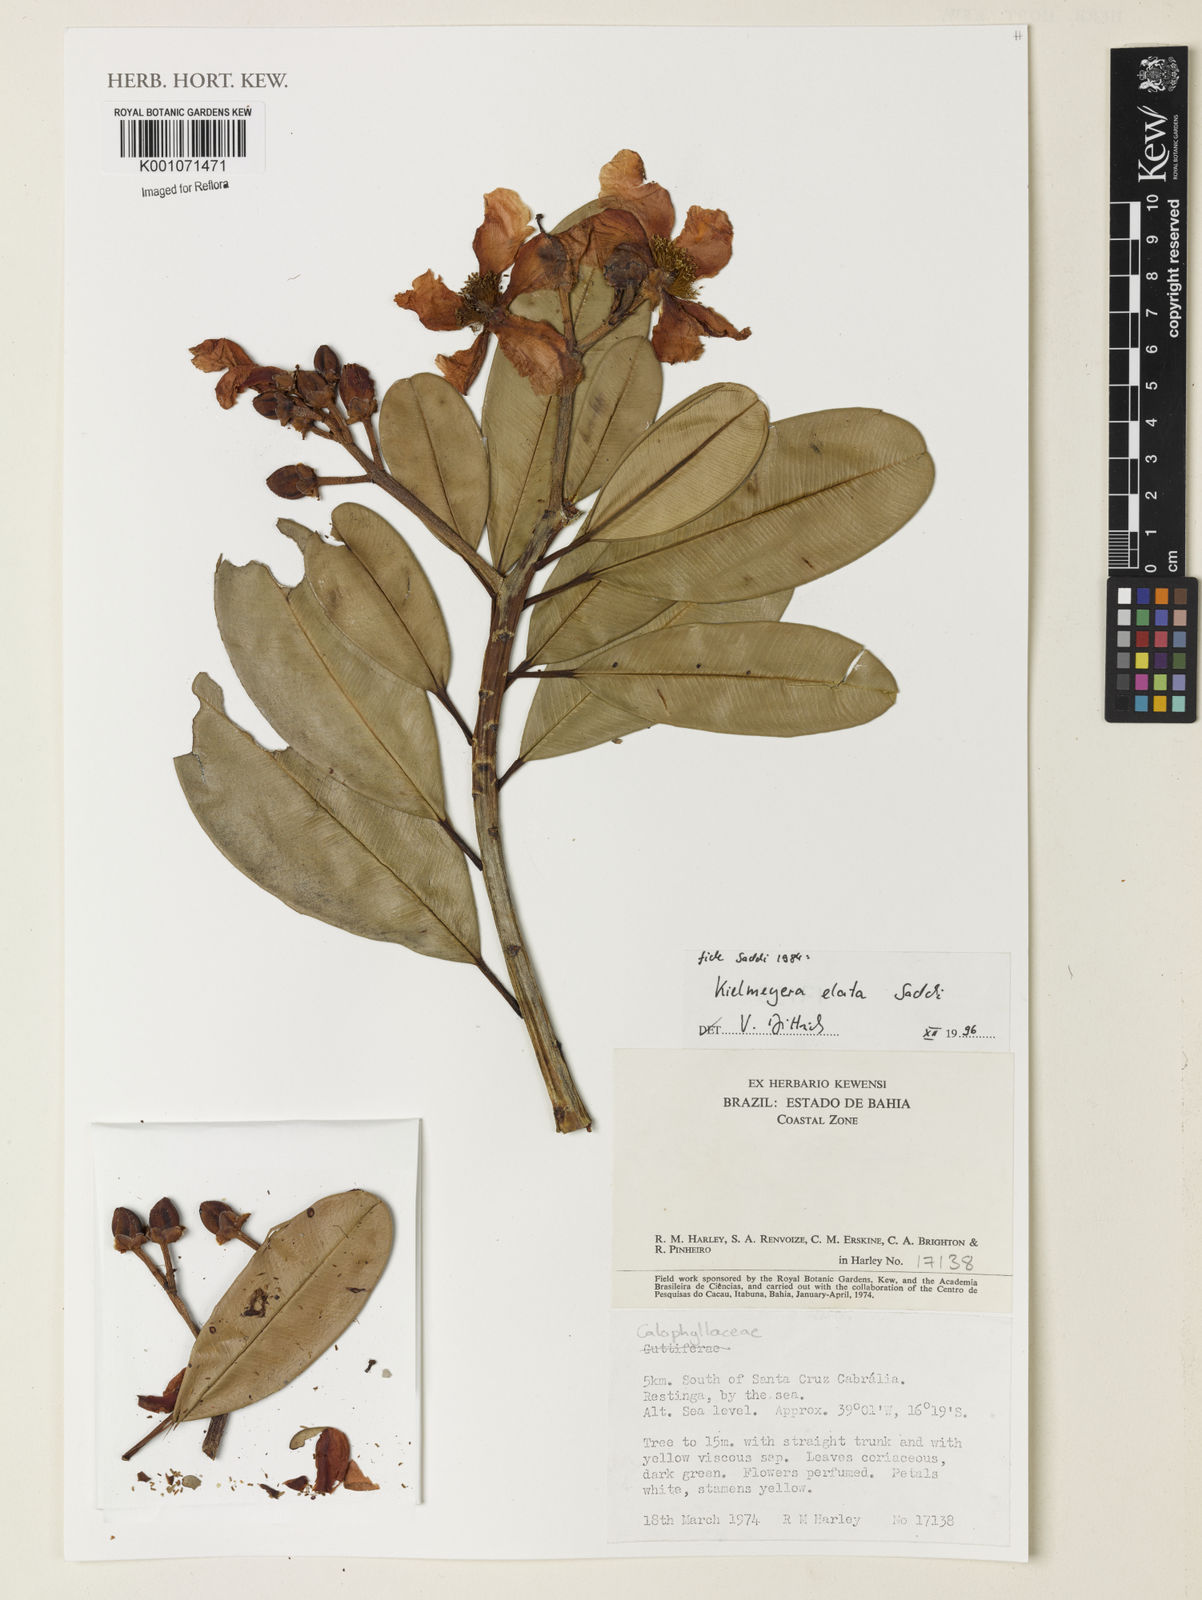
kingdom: Plantae
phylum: Tracheophyta
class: Magnoliopsida
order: Malpighiales
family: Calophyllaceae
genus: Kielmeyera
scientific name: Kielmeyera elata
